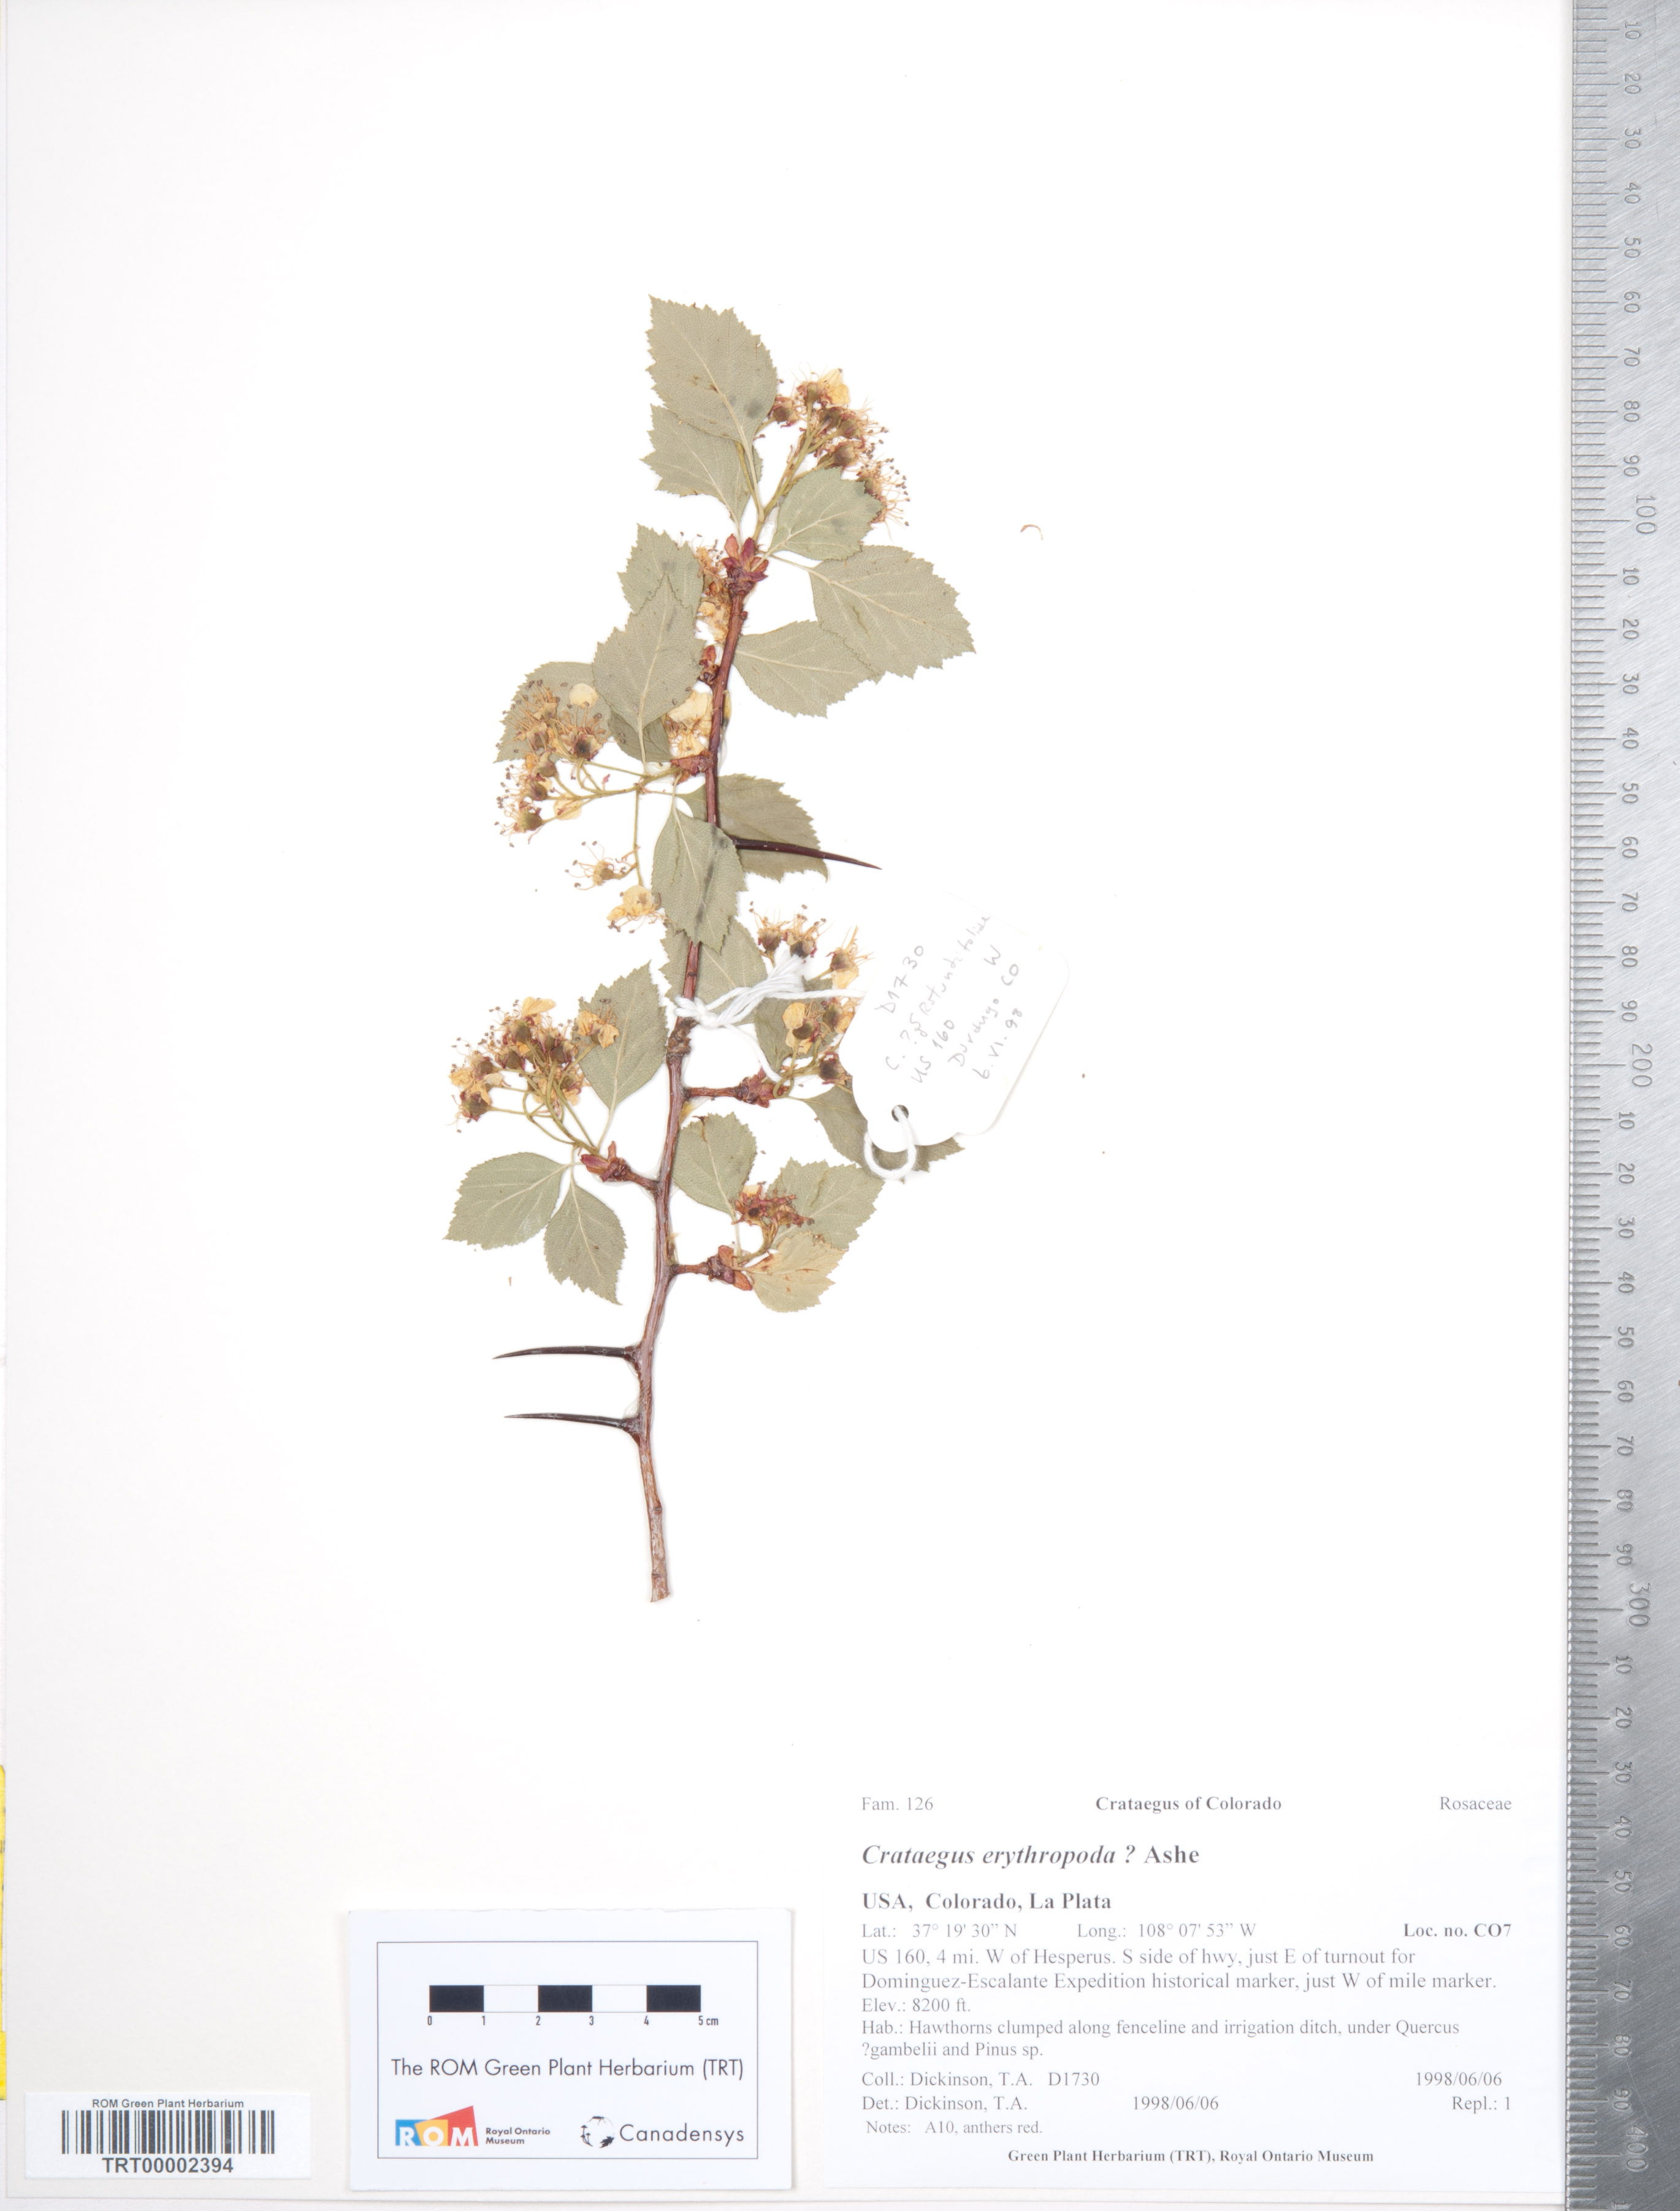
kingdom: Plantae
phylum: Tracheophyta
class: Magnoliopsida
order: Rosales
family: Rosaceae
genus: Crataegus
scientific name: Crataegus erythropoda
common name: Cerro hawthorn
